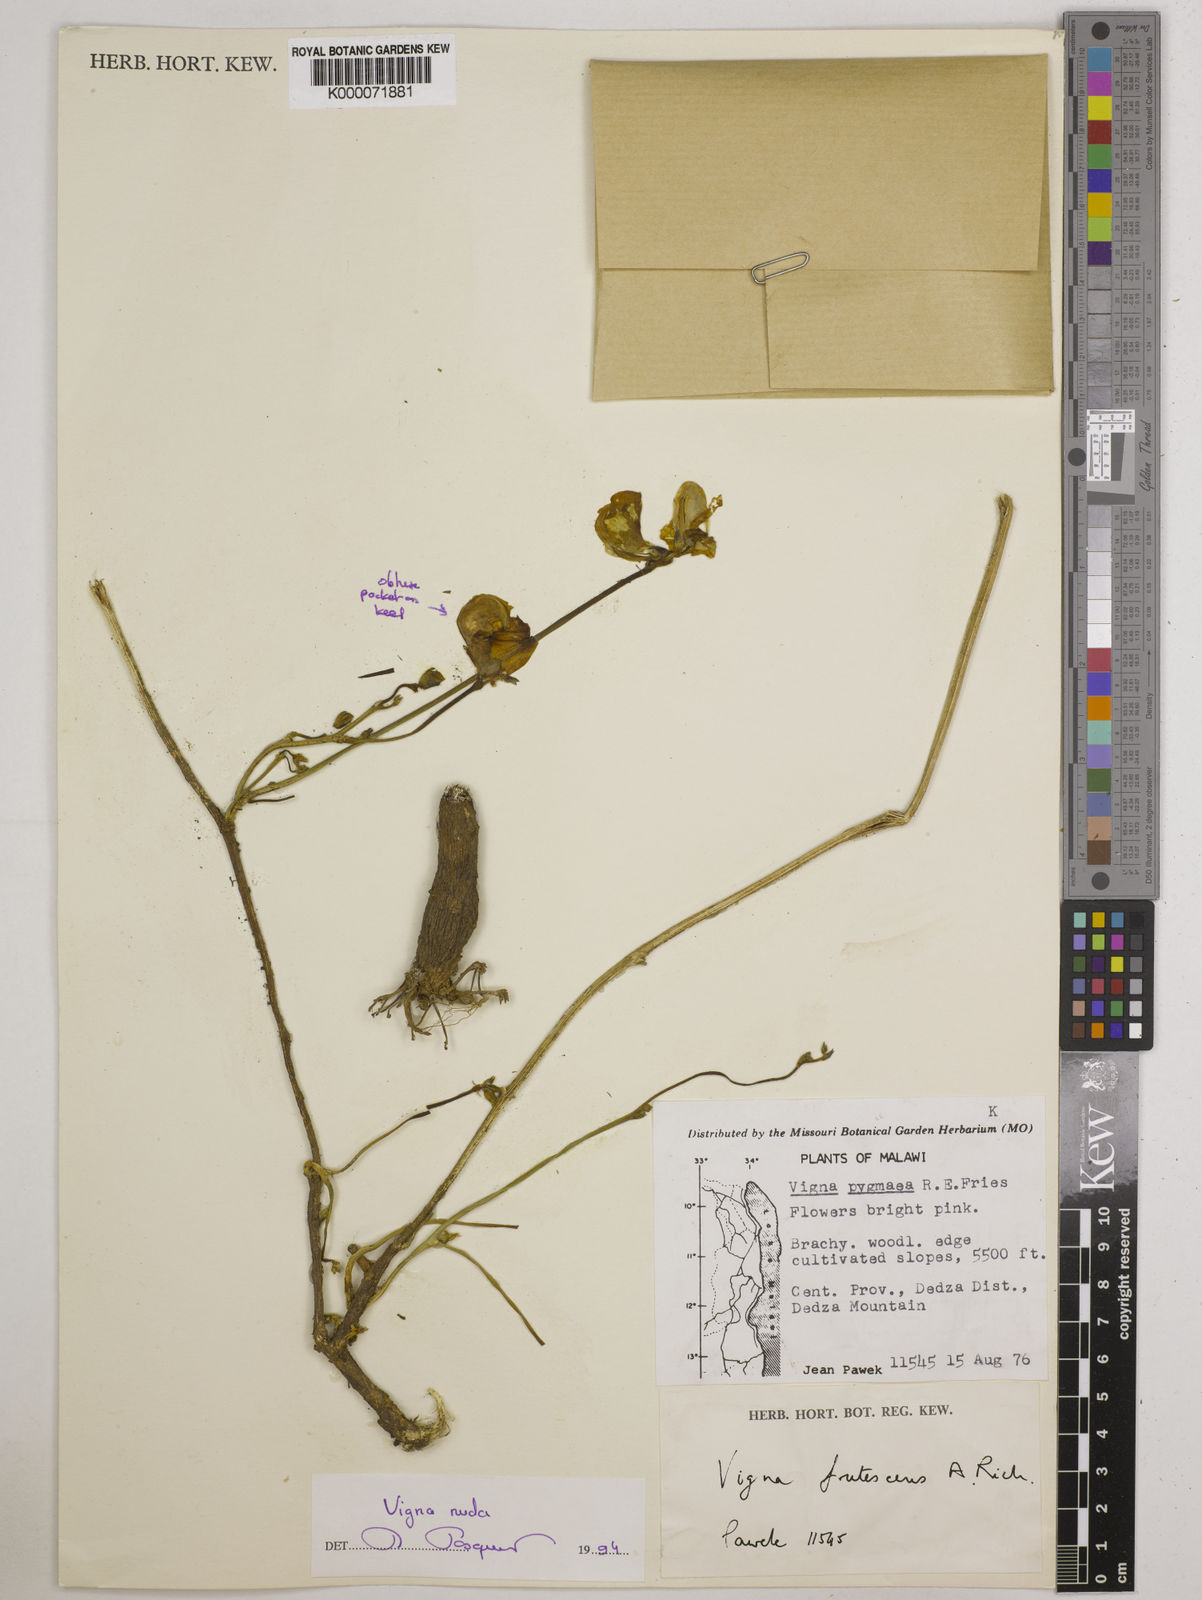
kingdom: Plantae
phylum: Tracheophyta
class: Magnoliopsida
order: Fabales
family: Fabaceae
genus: Vigna
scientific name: Vigna antunesii
